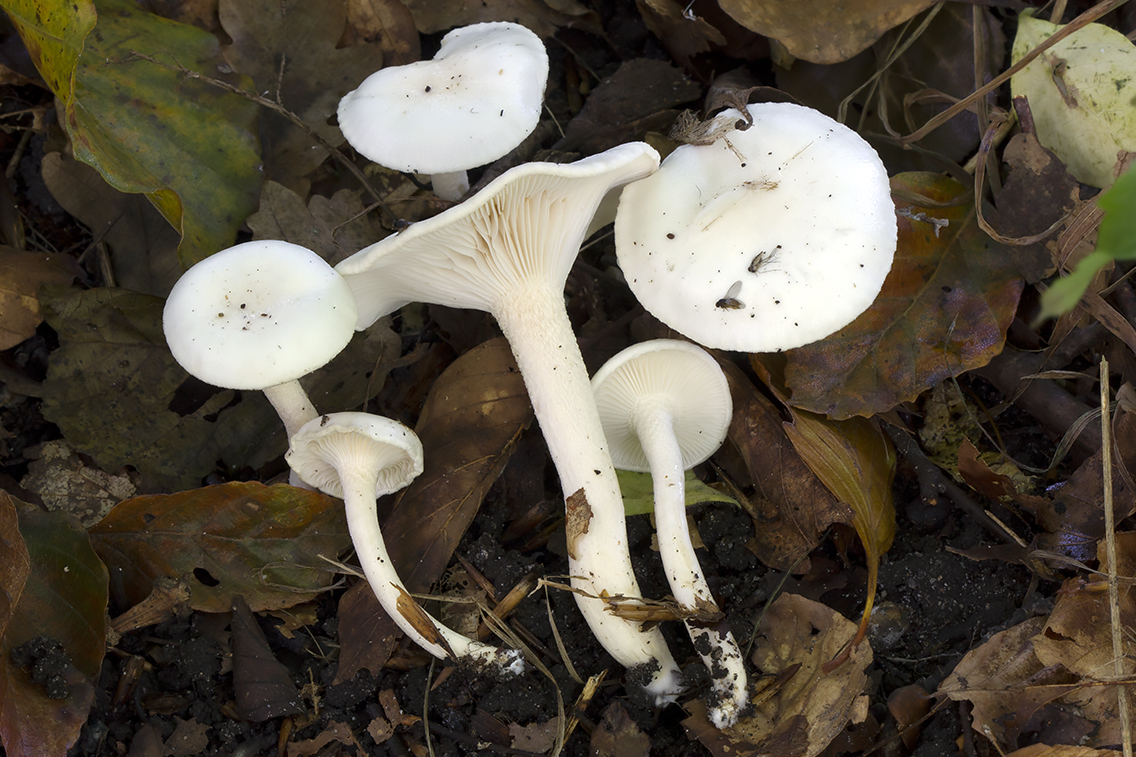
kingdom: Fungi
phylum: Basidiomycota
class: Agaricomycetes
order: Agaricales
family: Hygrophoraceae
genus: Hygrophorus
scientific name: Hygrophorus eburneus
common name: elfenbens-sneglehat
